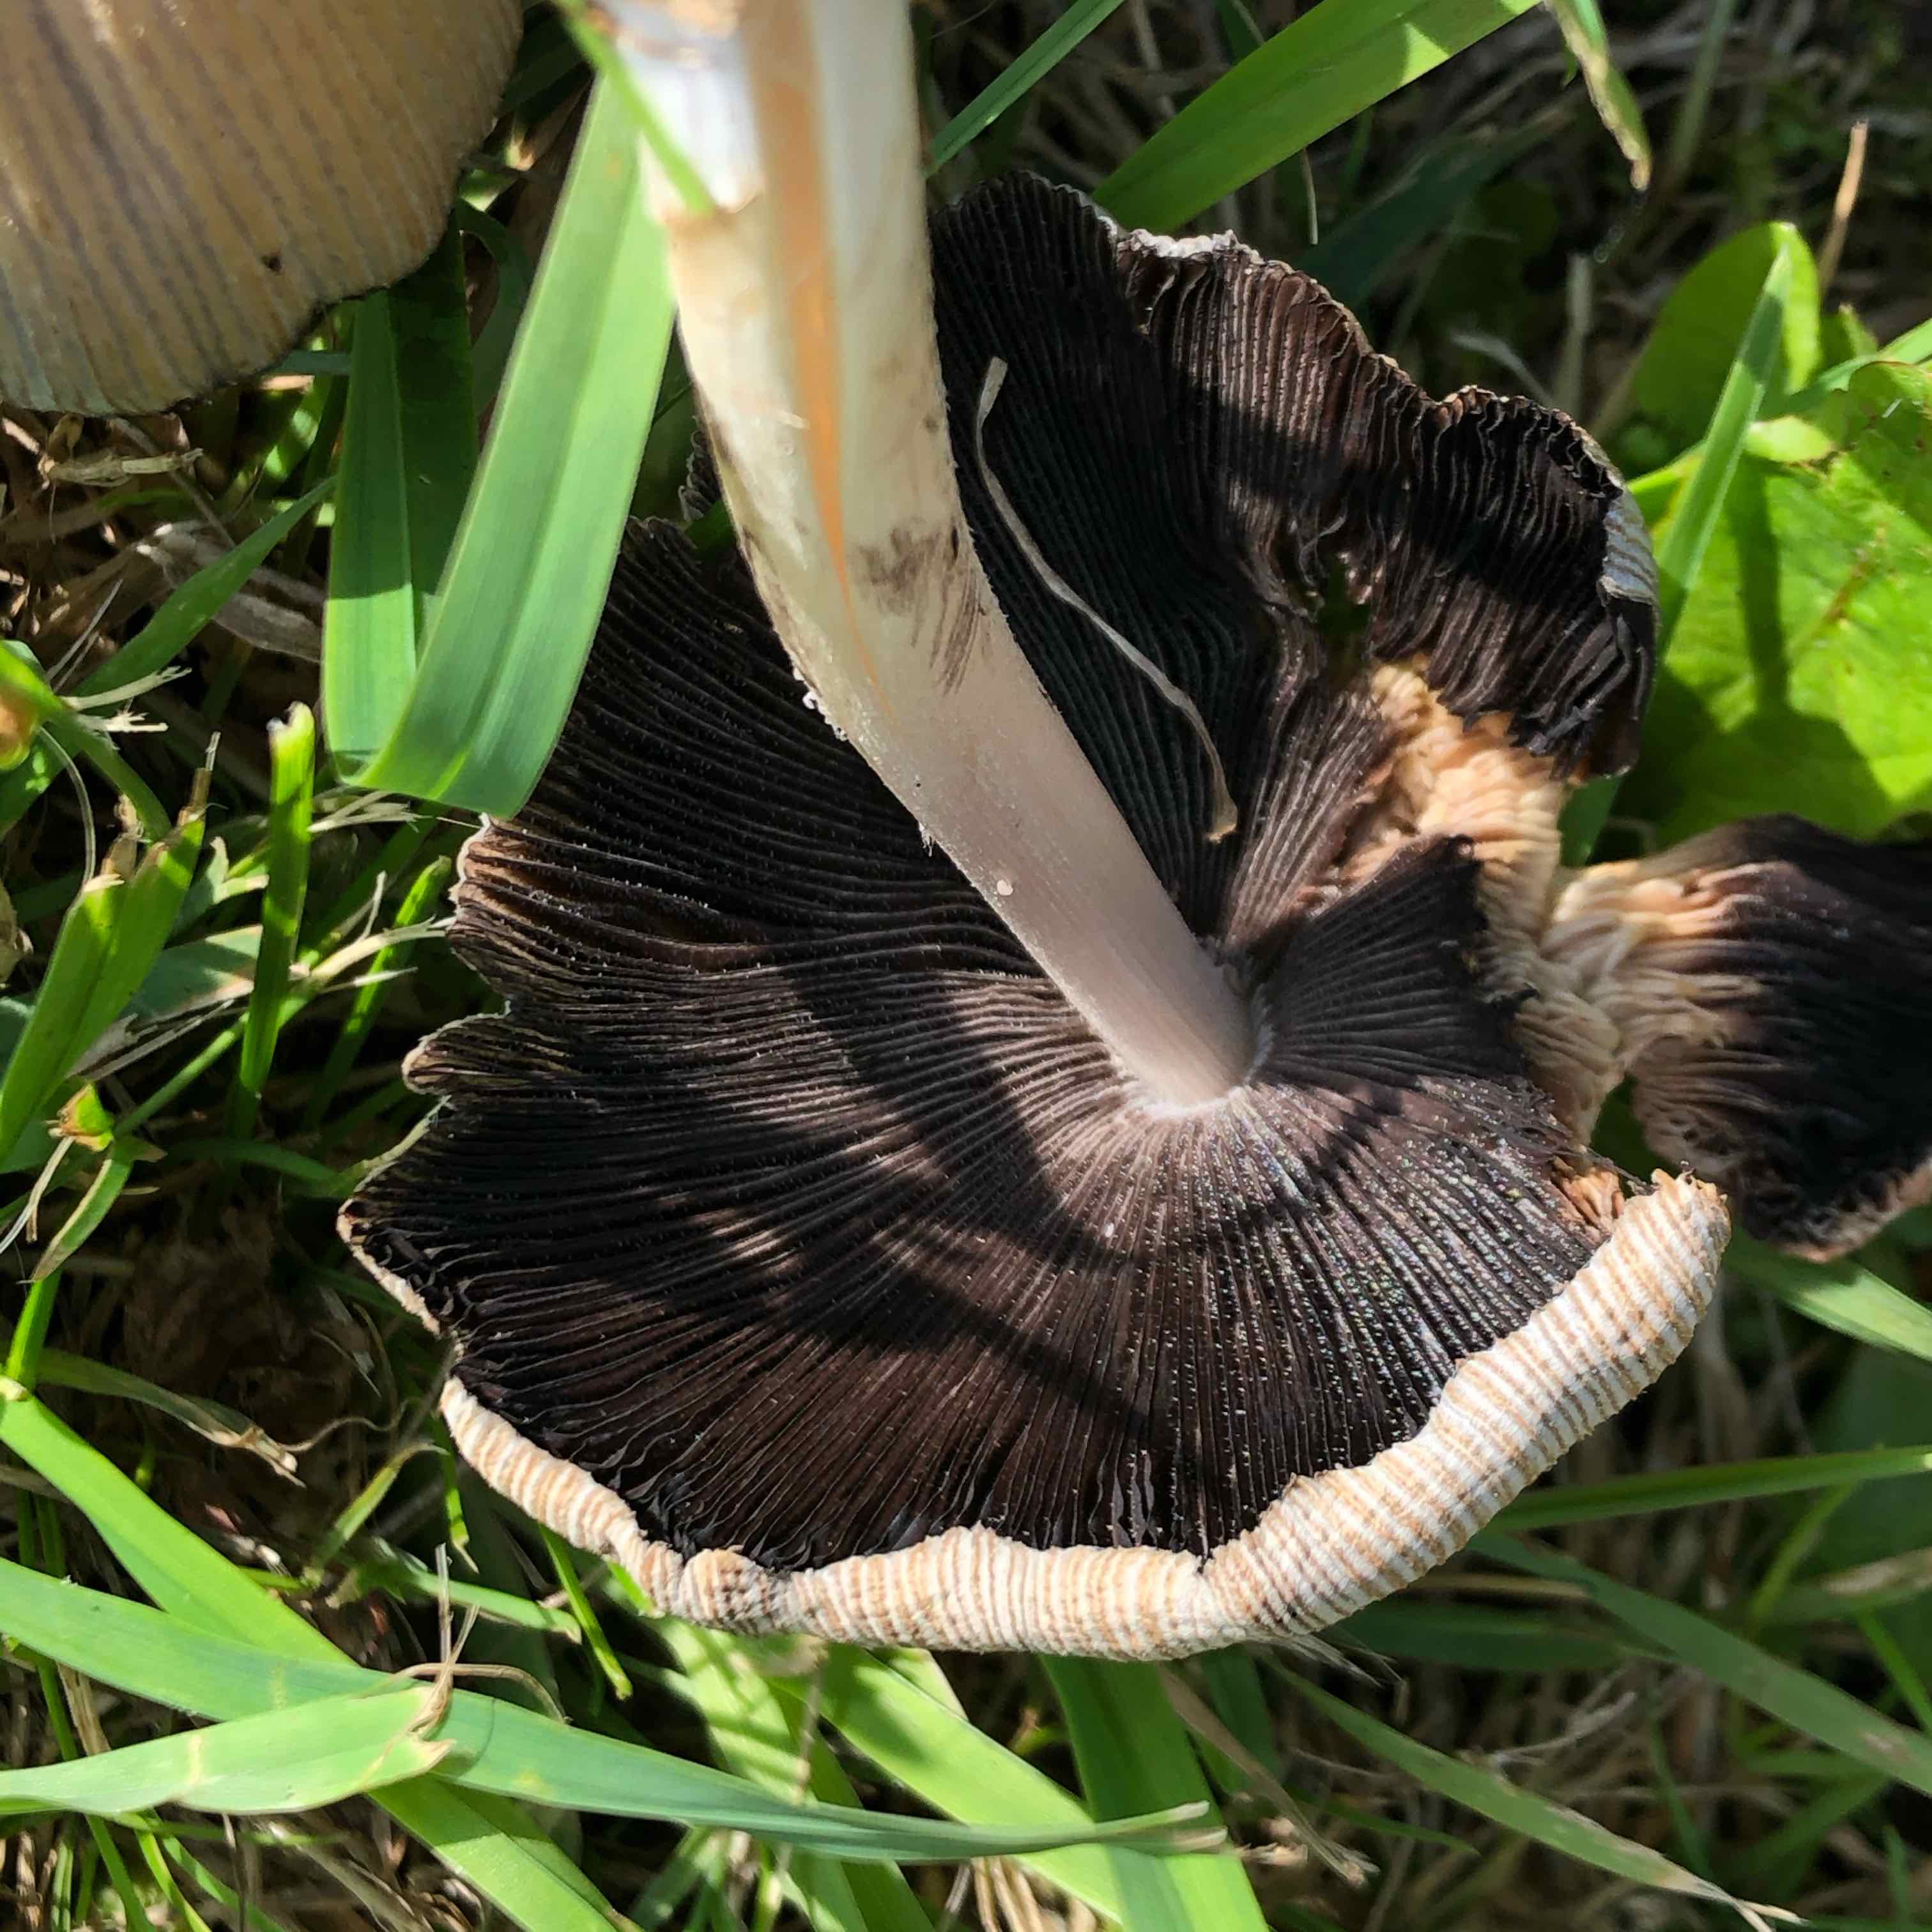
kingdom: Fungi
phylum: Basidiomycota
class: Agaricomycetes
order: Agaricales
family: Psathyrellaceae
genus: Coprinellus
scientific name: Coprinellus micaceus
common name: glimmer-blækhat
